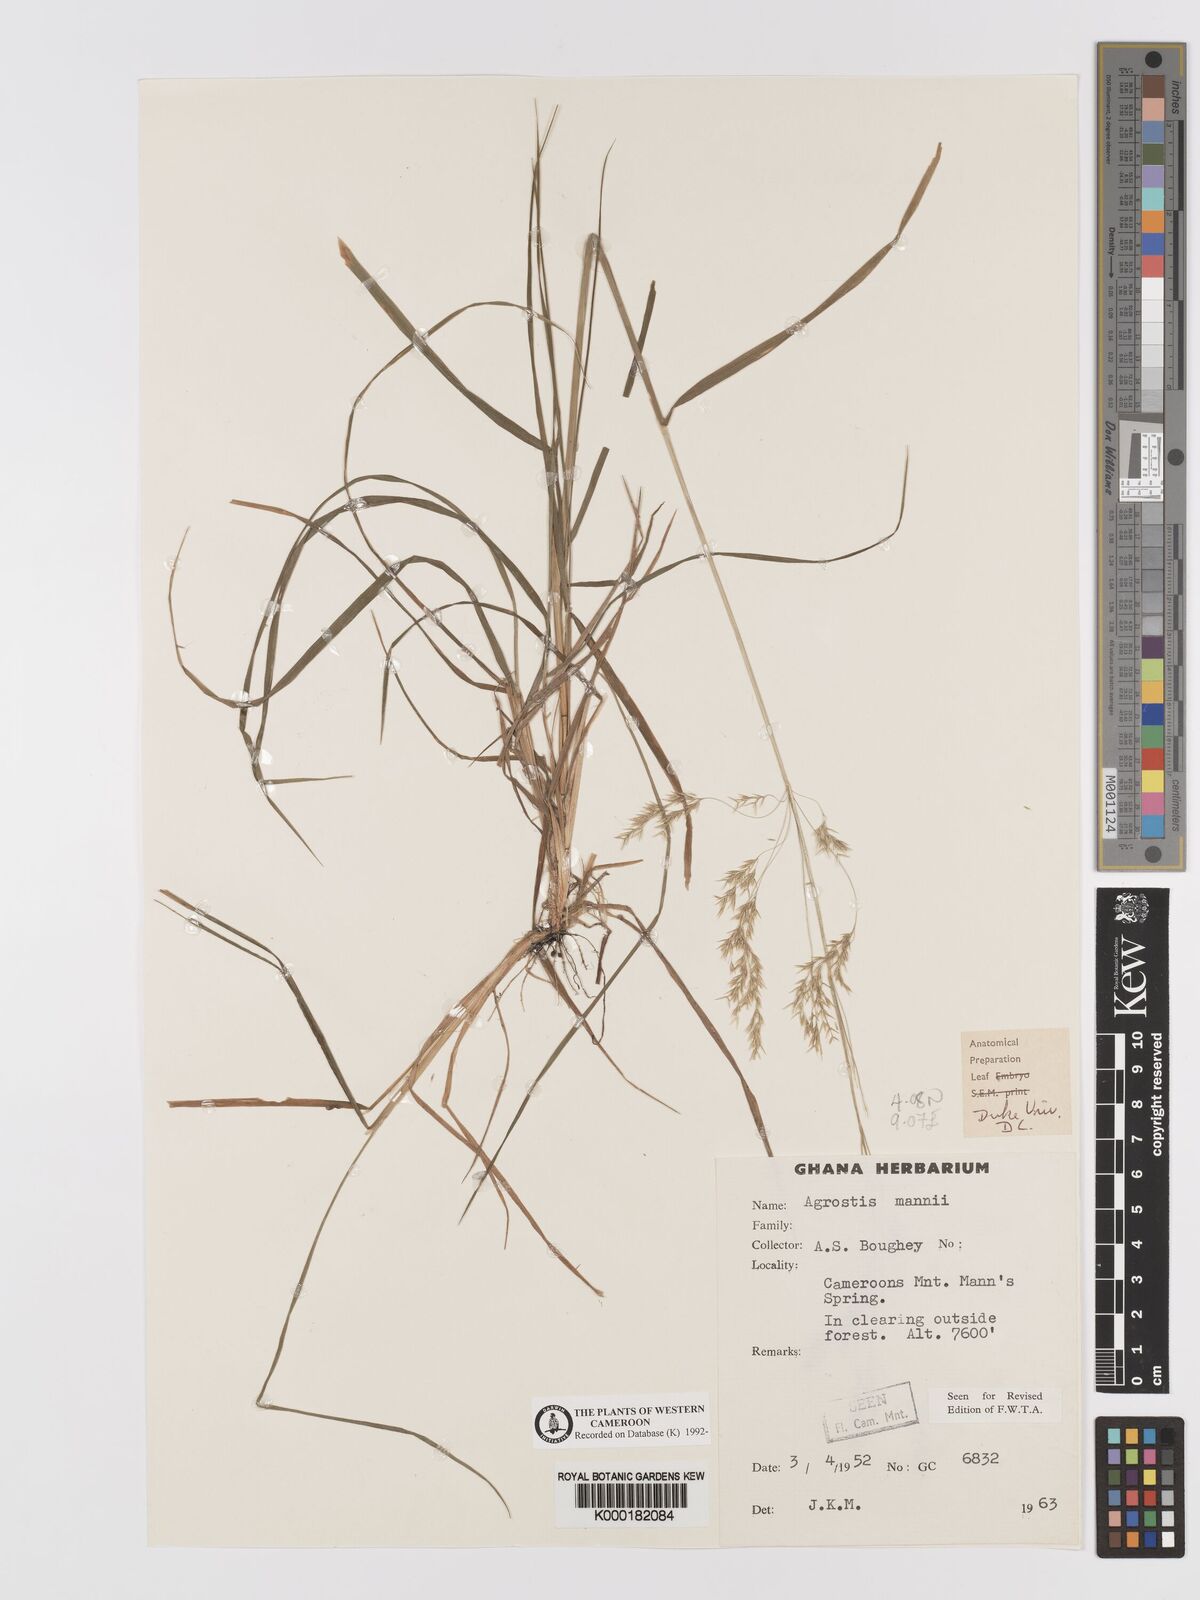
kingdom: Plantae
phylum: Tracheophyta
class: Liliopsida
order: Poales
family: Poaceae
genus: Agrostis
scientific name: Agrostis mannii
